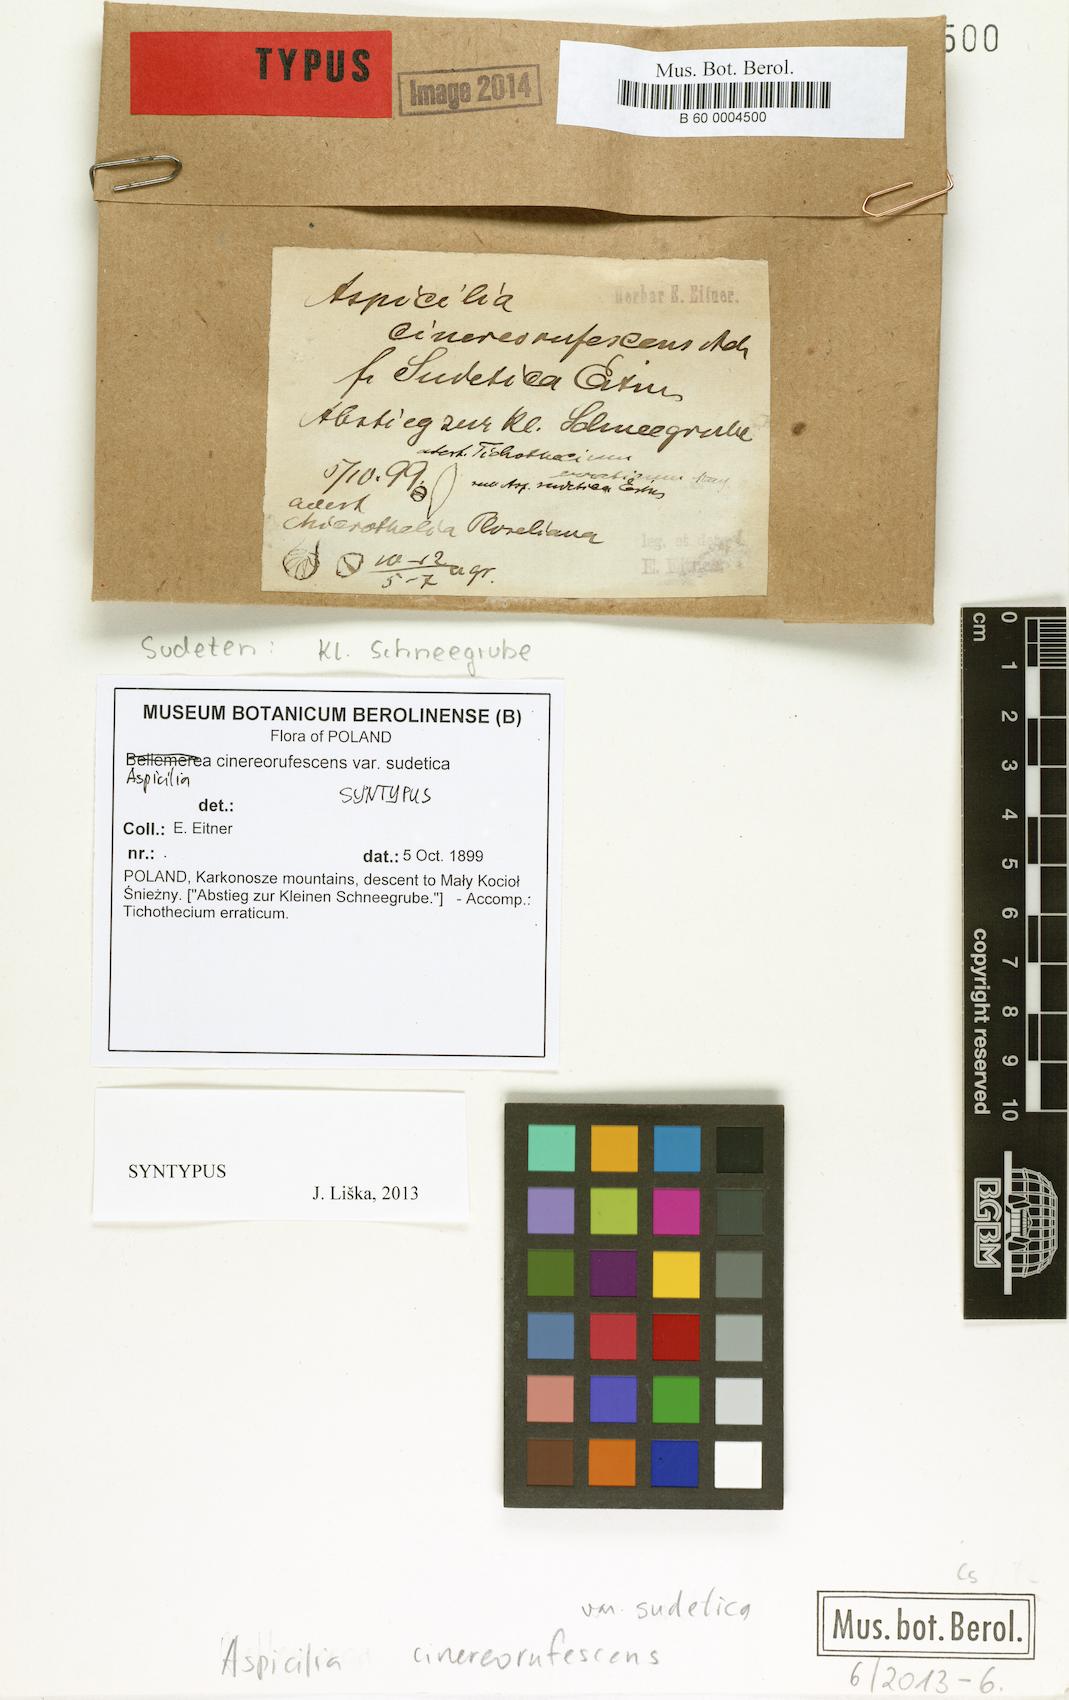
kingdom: Fungi
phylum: Ascomycota
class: Lecanoromycetes
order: Lecideales
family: Lecideaceae
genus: Bellemerea
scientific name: Bellemerea cinereorufescens
